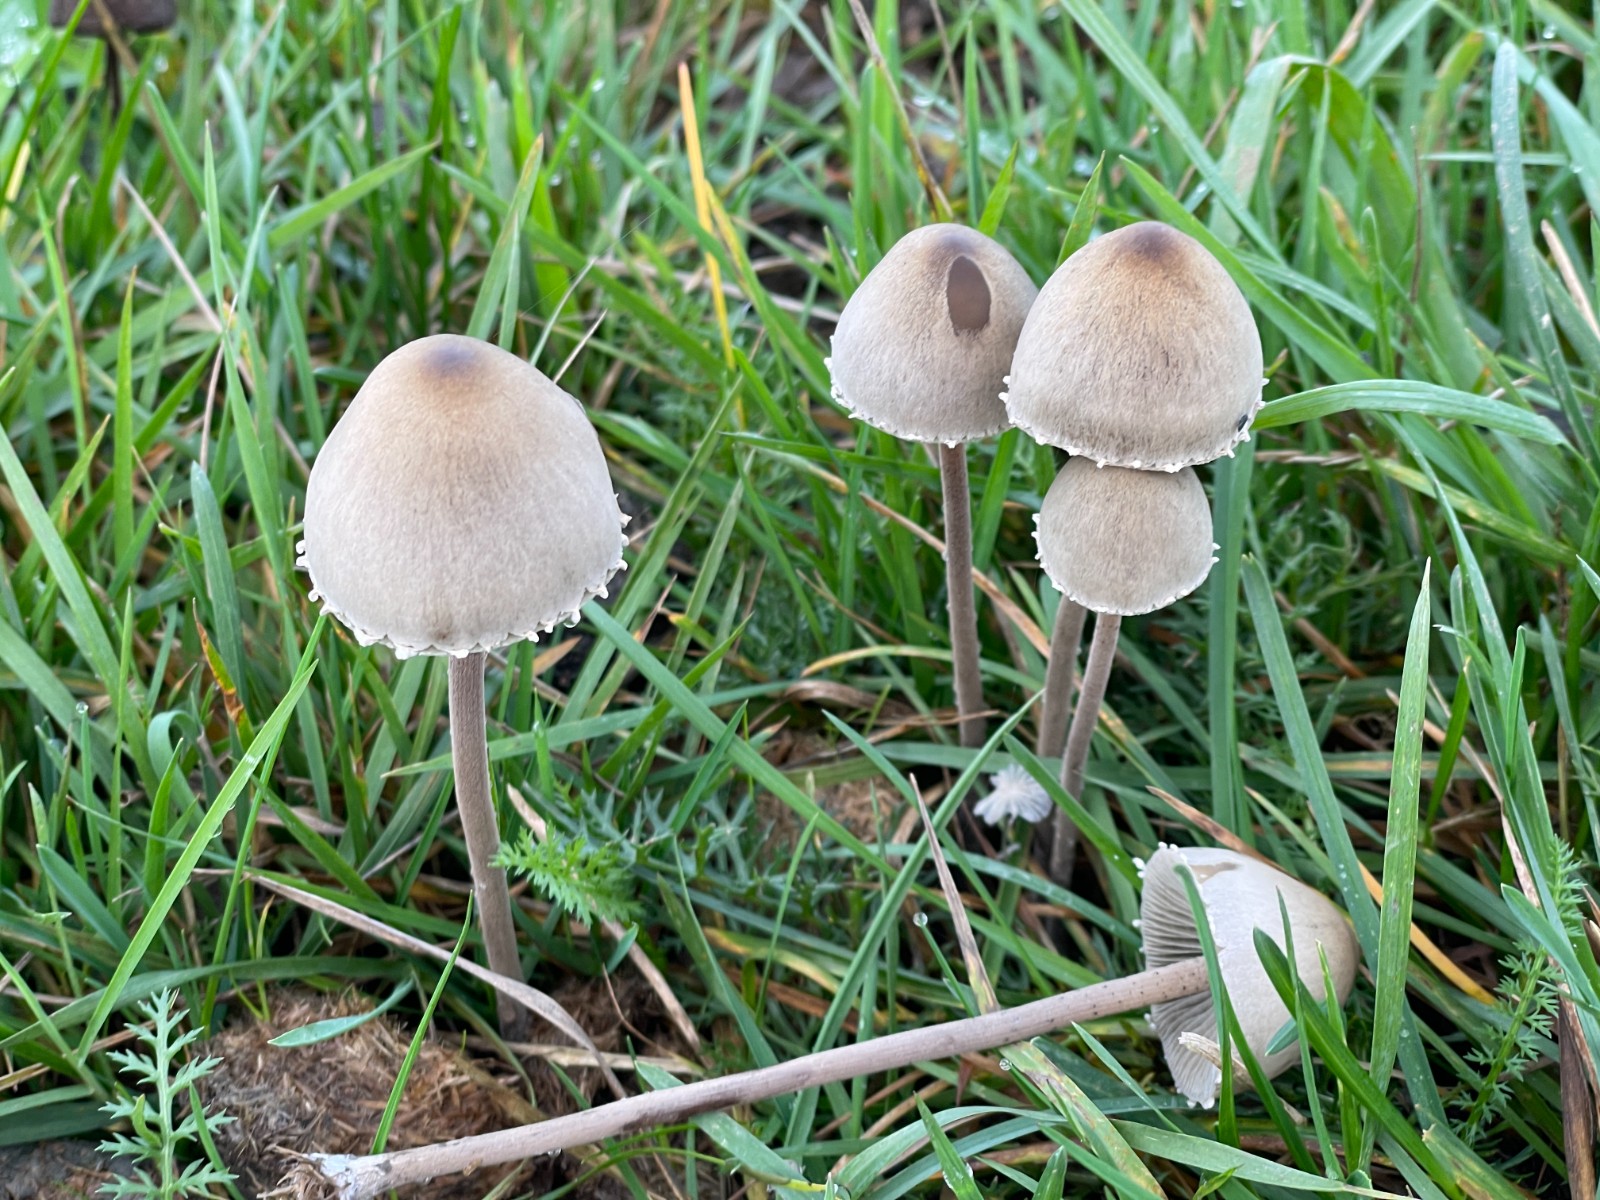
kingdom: Fungi
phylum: Basidiomycota
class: Agaricomycetes
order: Agaricales
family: Bolbitiaceae
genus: Panaeolus
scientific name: Panaeolus papilionaceus
